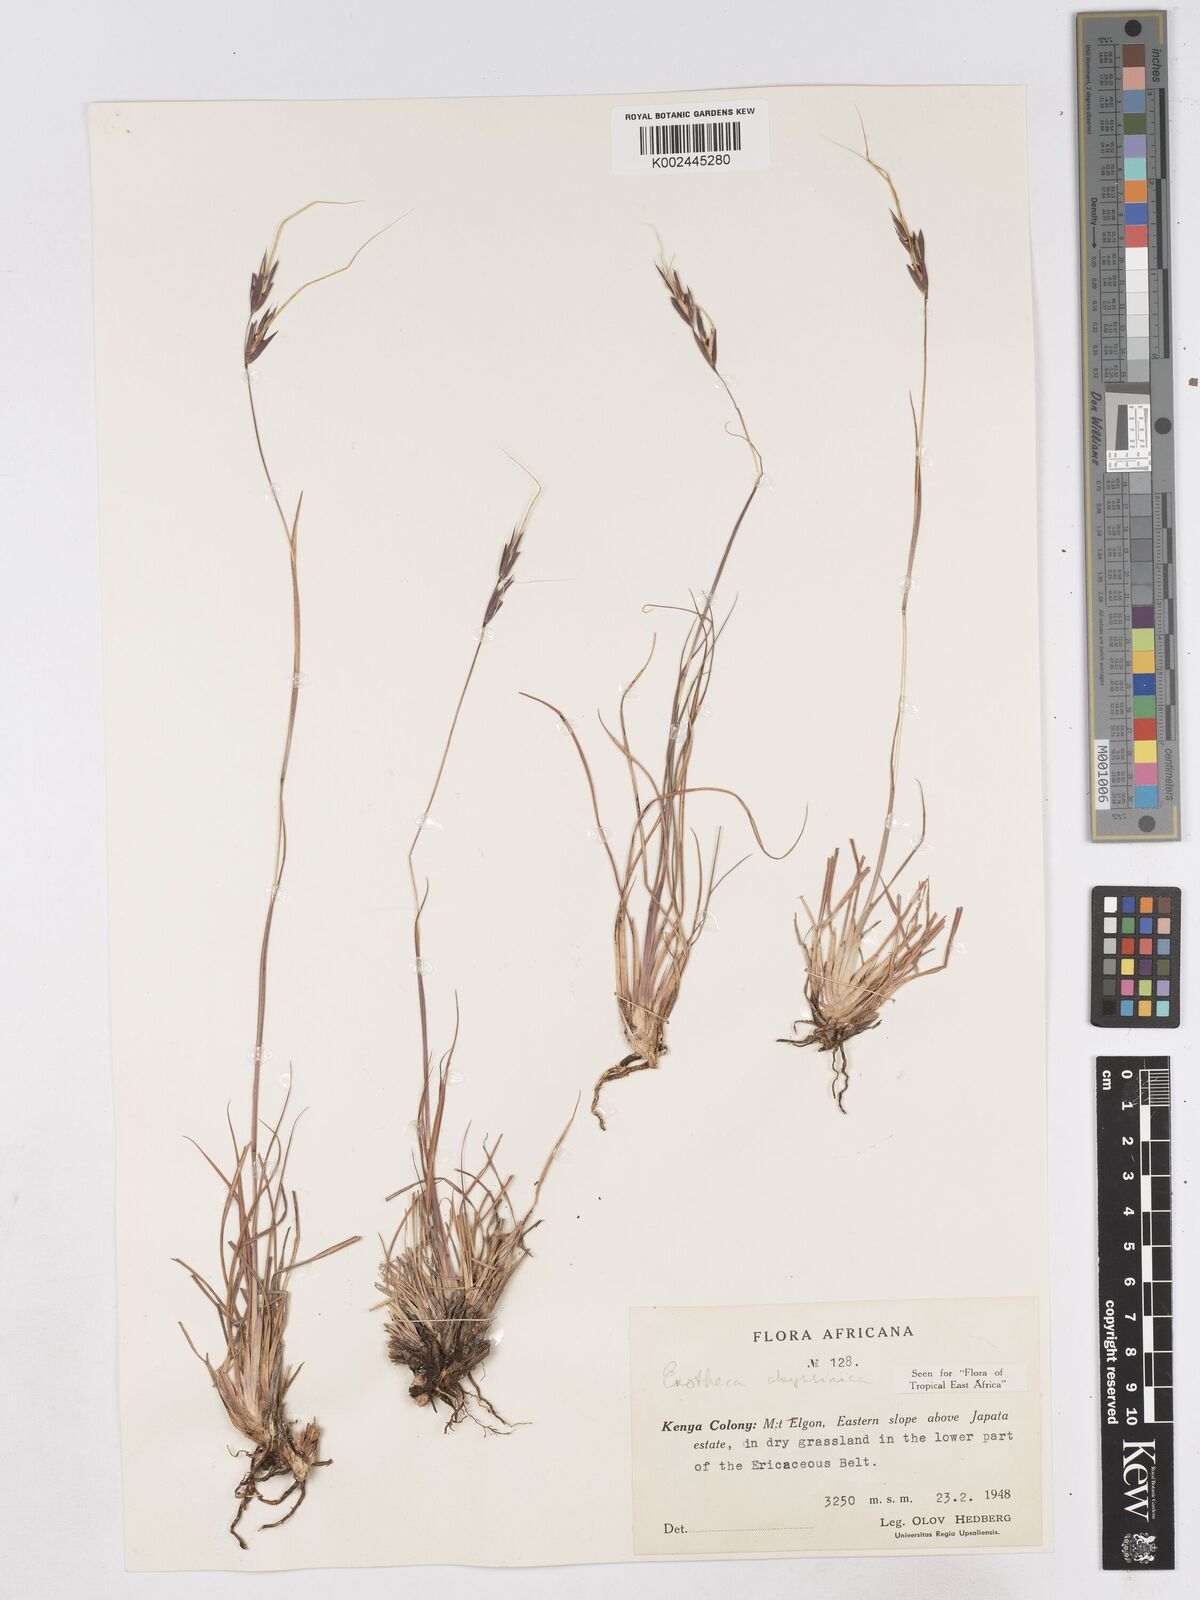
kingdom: Plantae
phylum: Tracheophyta
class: Liliopsida
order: Poales
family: Poaceae
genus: Exotheca
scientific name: Exotheca abyssinica
